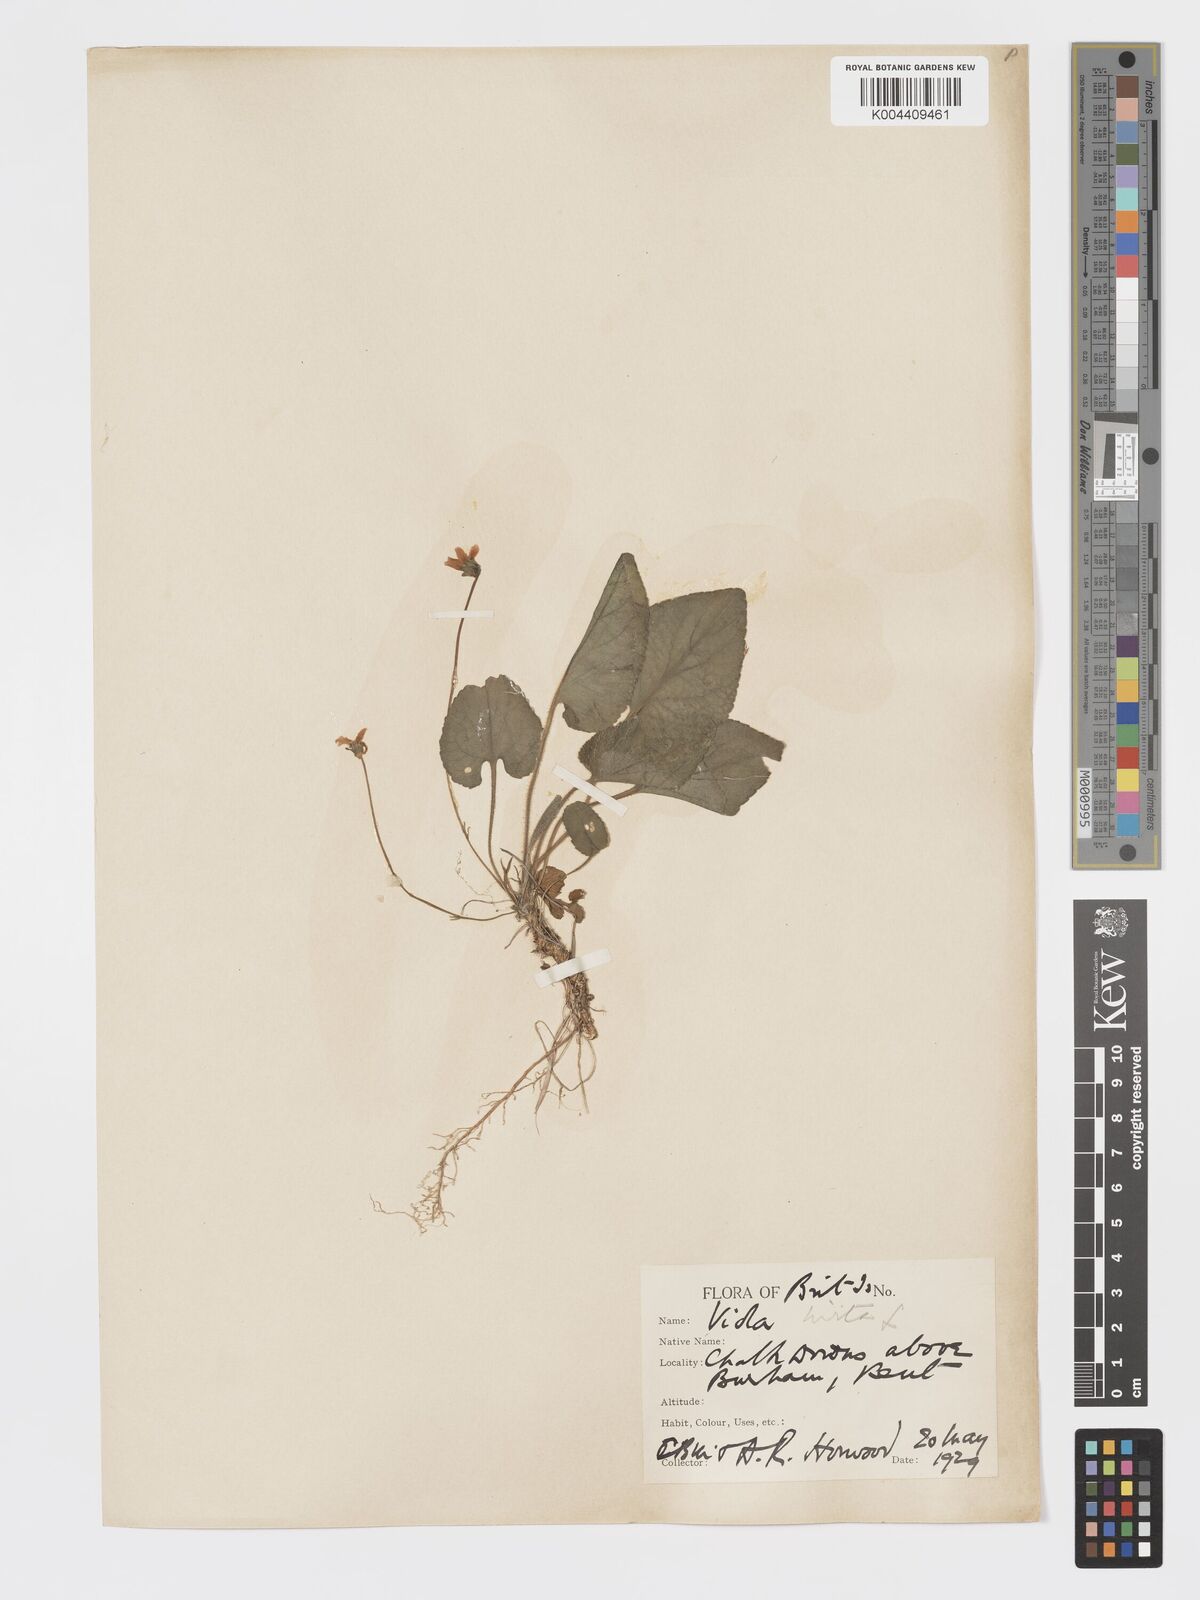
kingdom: Plantae
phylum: Tracheophyta
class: Magnoliopsida
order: Malpighiales
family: Violaceae
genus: Viola
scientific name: Viola
